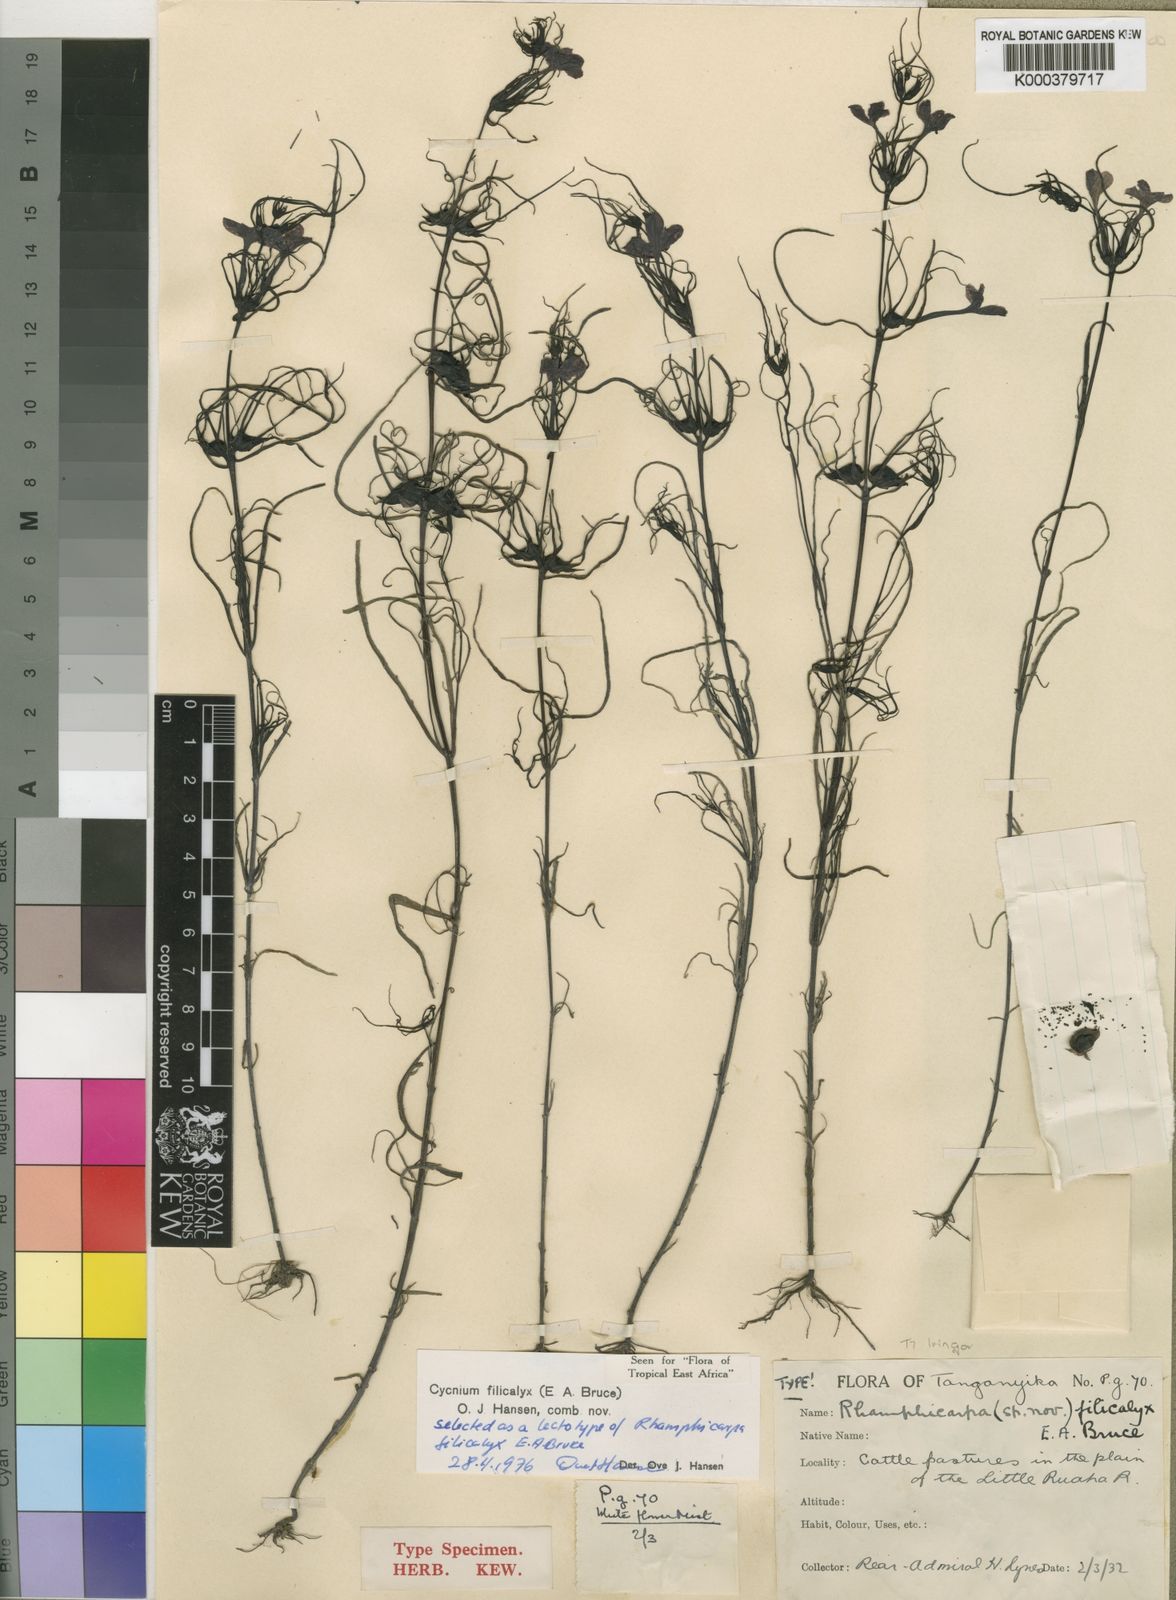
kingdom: Plantae
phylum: Tracheophyta
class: Magnoliopsida
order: Lamiales
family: Orobanchaceae
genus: Cycnium
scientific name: Cycnium filicalyx
